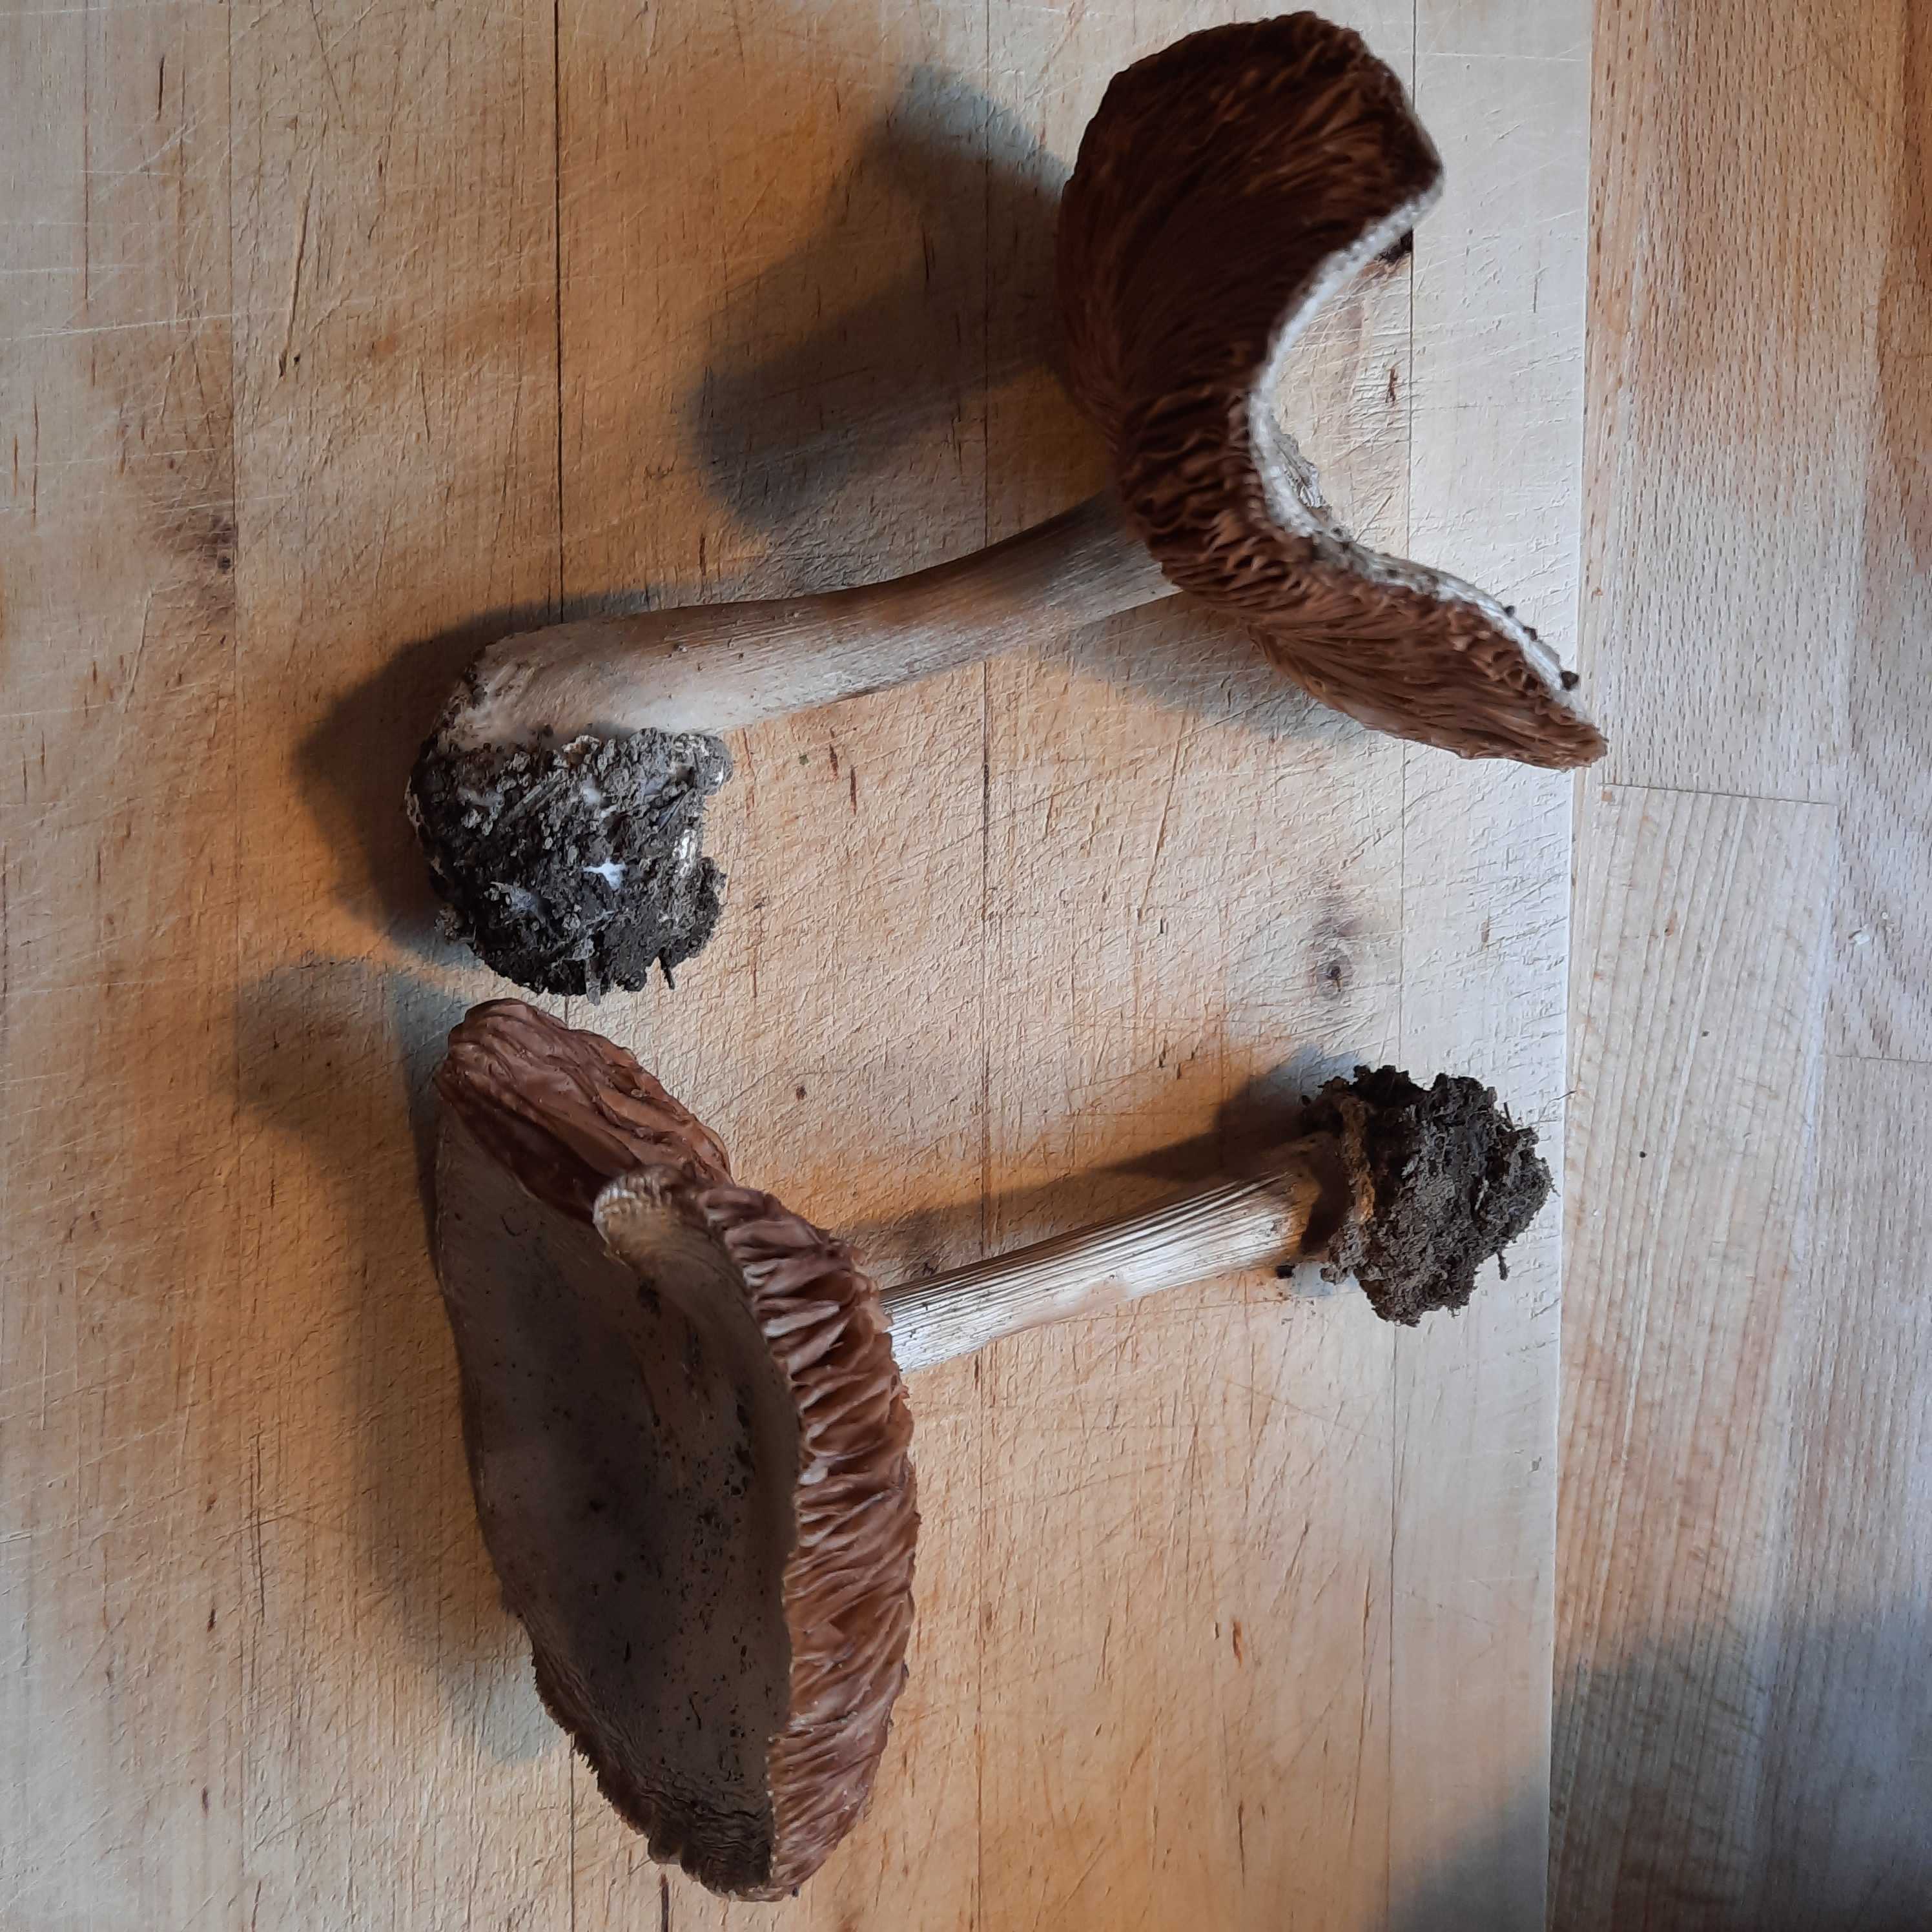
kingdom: Fungi
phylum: Basidiomycota
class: Agaricomycetes
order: Agaricales
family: Pluteaceae
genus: Volvopluteus
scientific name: Volvopluteus gloiocephalus
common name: høj posesvamp
